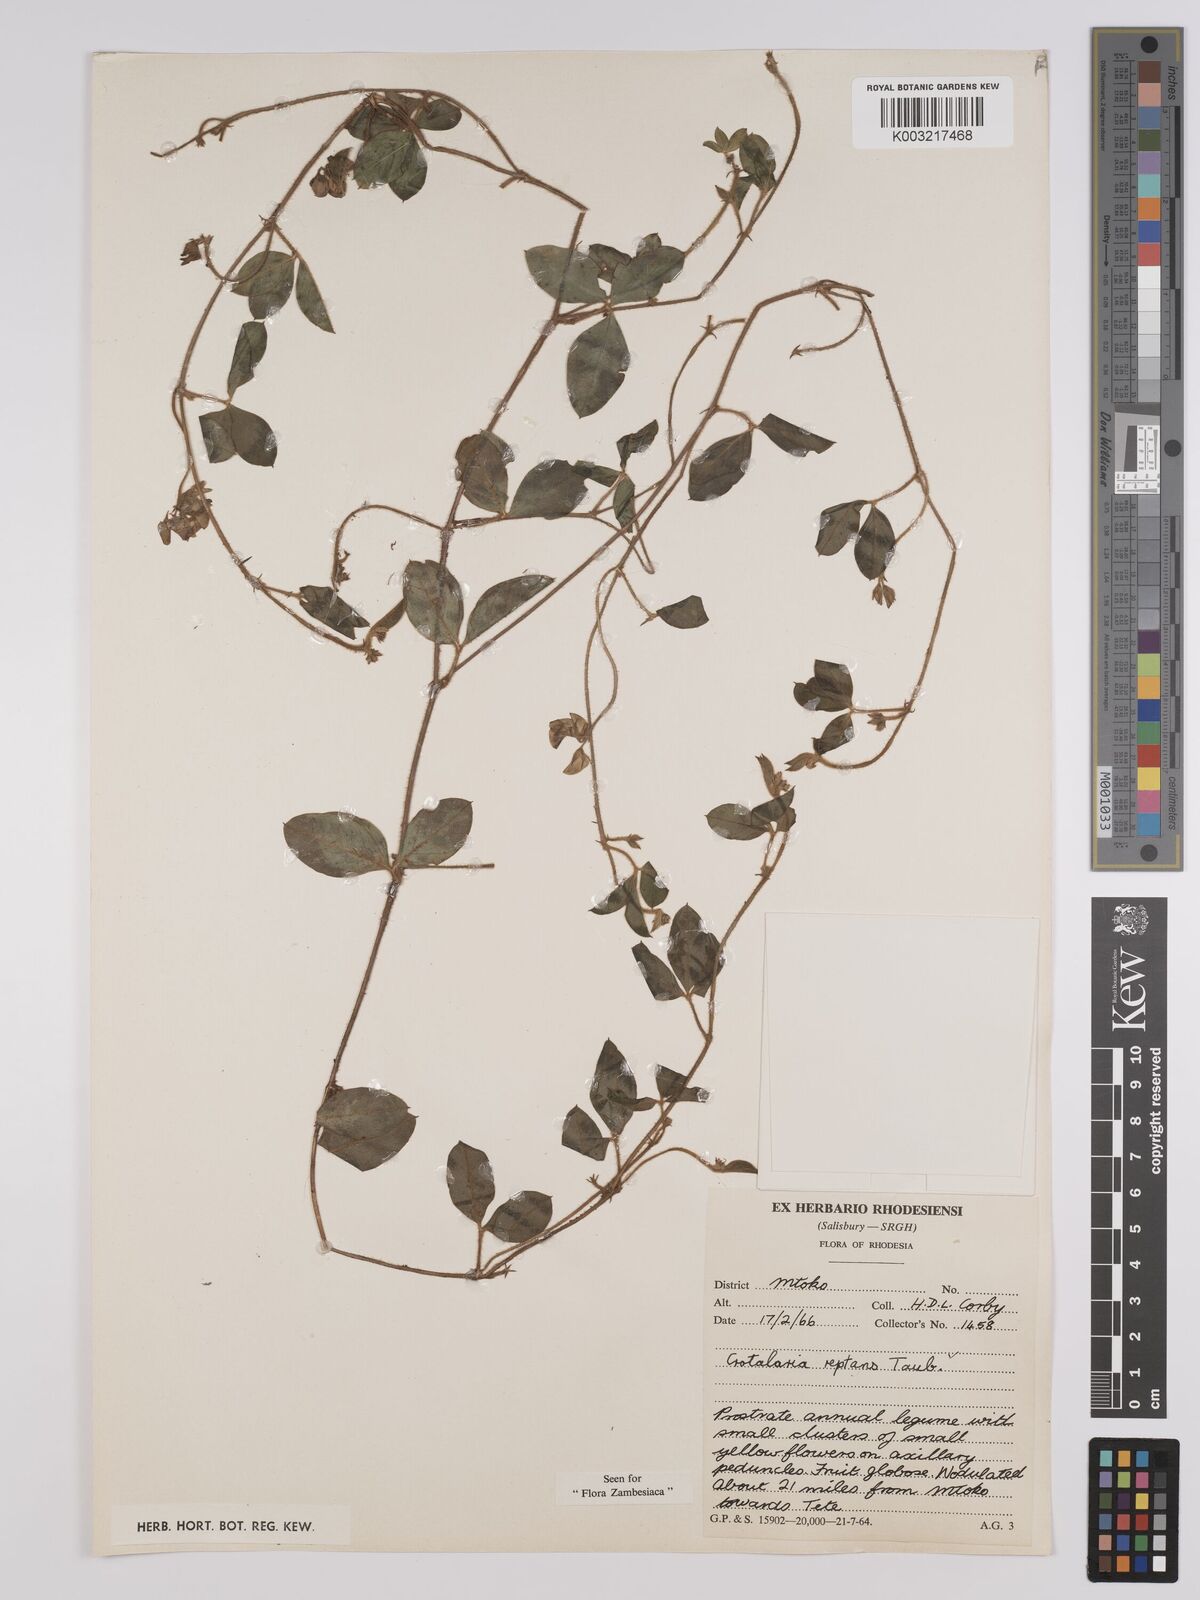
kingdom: Plantae
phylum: Tracheophyta
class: Magnoliopsida
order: Fabales
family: Fabaceae
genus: Crotalaria
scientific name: Crotalaria reptans
